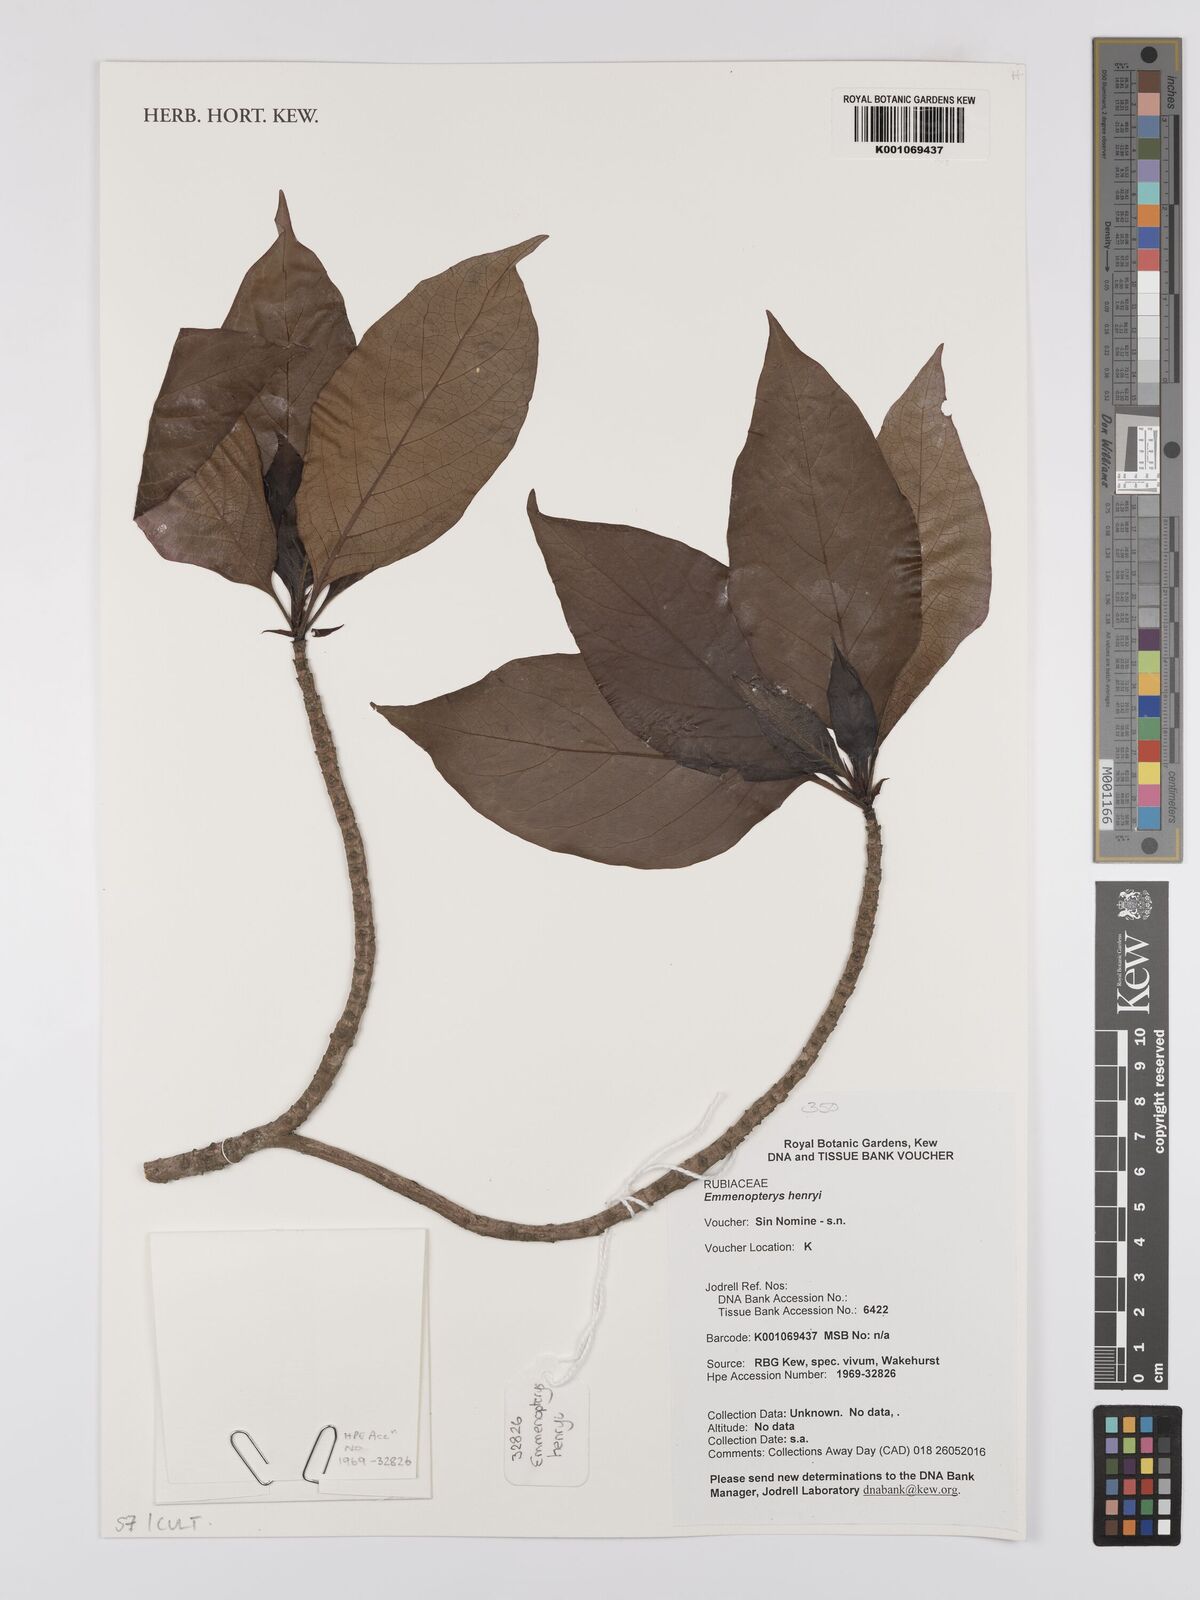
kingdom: Plantae
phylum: Tracheophyta
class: Magnoliopsida
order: Gentianales
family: Rubiaceae
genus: Emmenopterys
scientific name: Emmenopterys henryi
